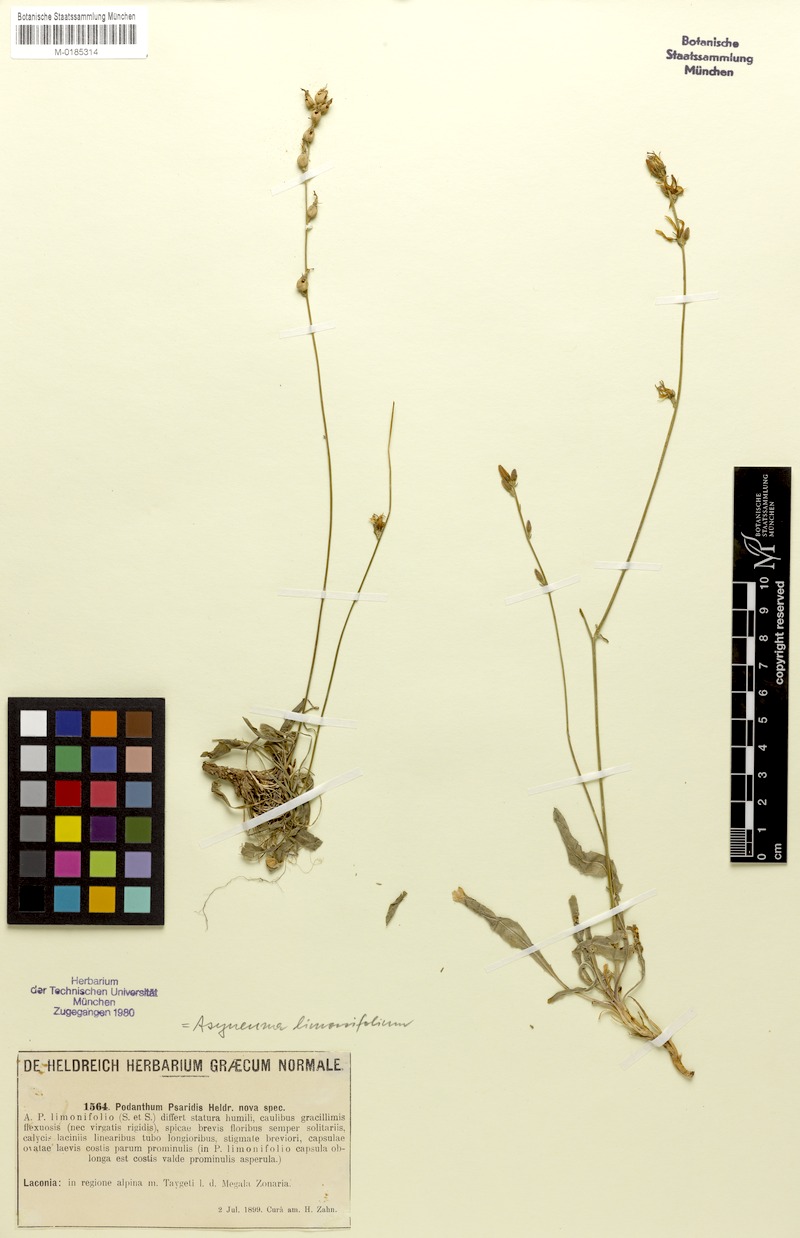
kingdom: Plantae
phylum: Tracheophyta
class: Magnoliopsida
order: Asterales
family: Campanulaceae
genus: Asyneuma
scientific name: Asyneuma limonifolium
